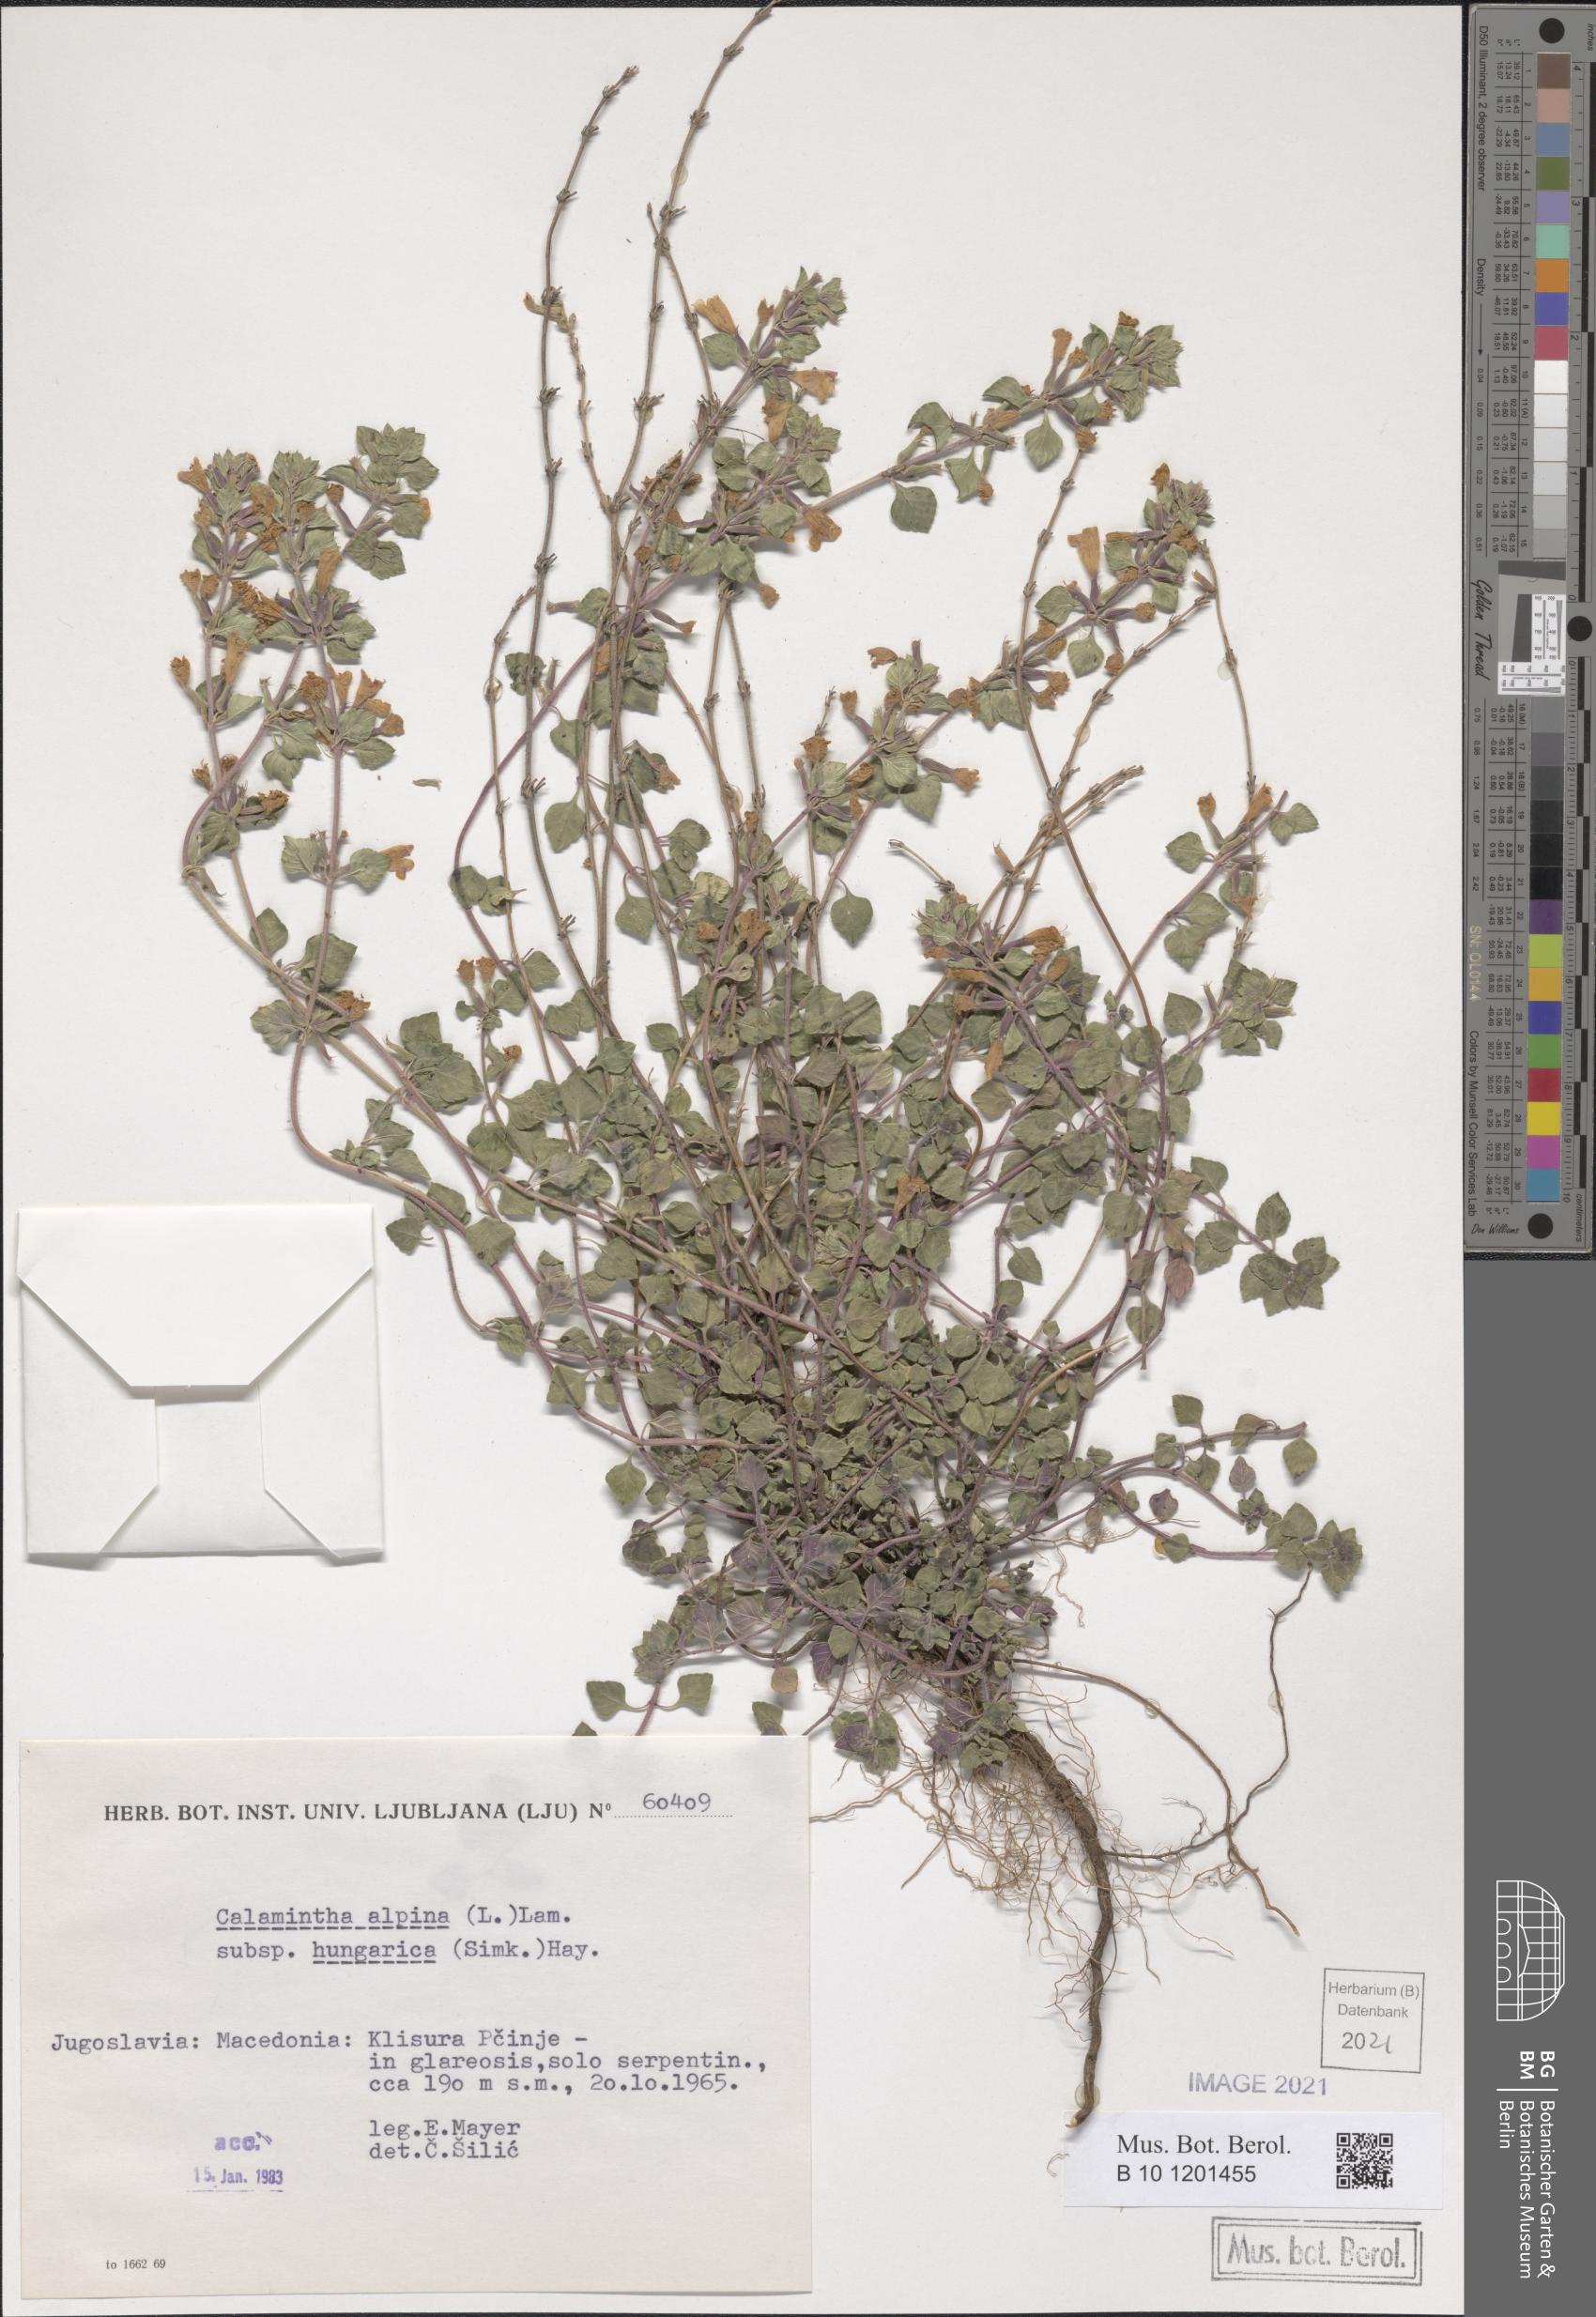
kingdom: Plantae
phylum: Tracheophyta
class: Magnoliopsida
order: Lamiales
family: Lamiaceae
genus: Clinopodium
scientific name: Clinopodium alpinum
